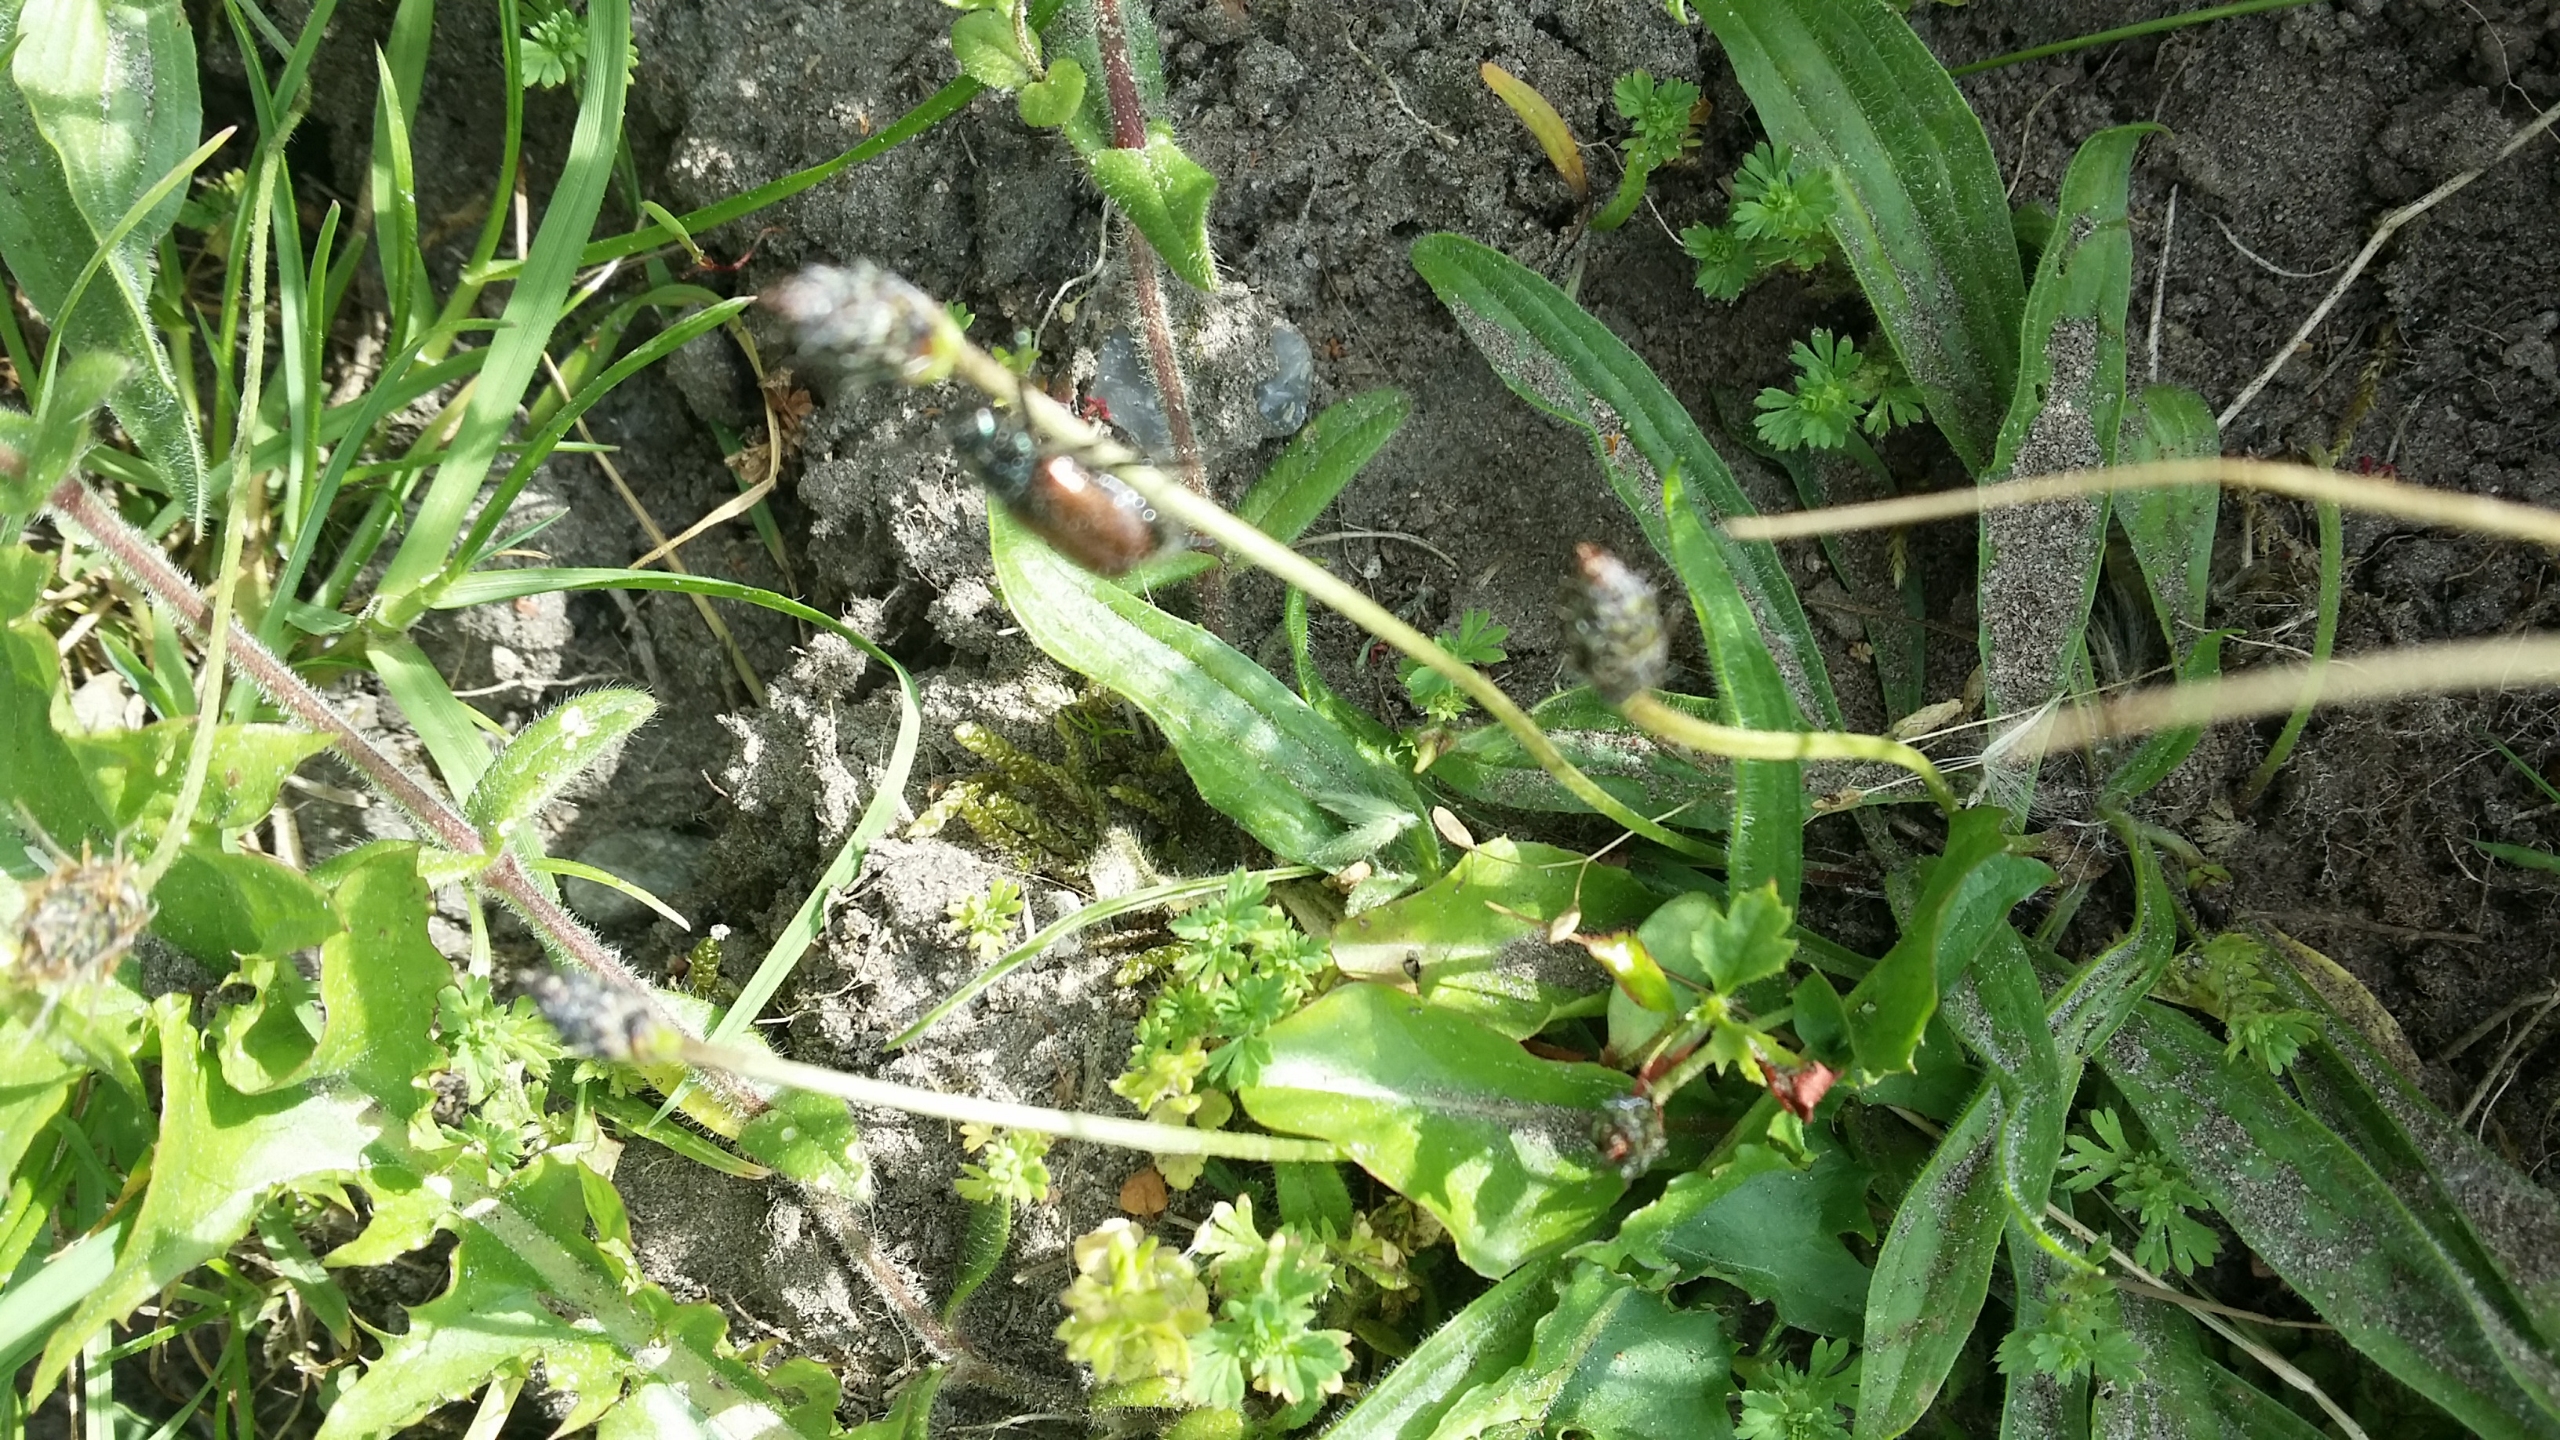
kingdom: Animalia
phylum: Arthropoda
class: Insecta
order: Coleoptera
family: Scarabaeidae
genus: Phyllopertha
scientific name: Phyllopertha horticola
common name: Gåsebille
